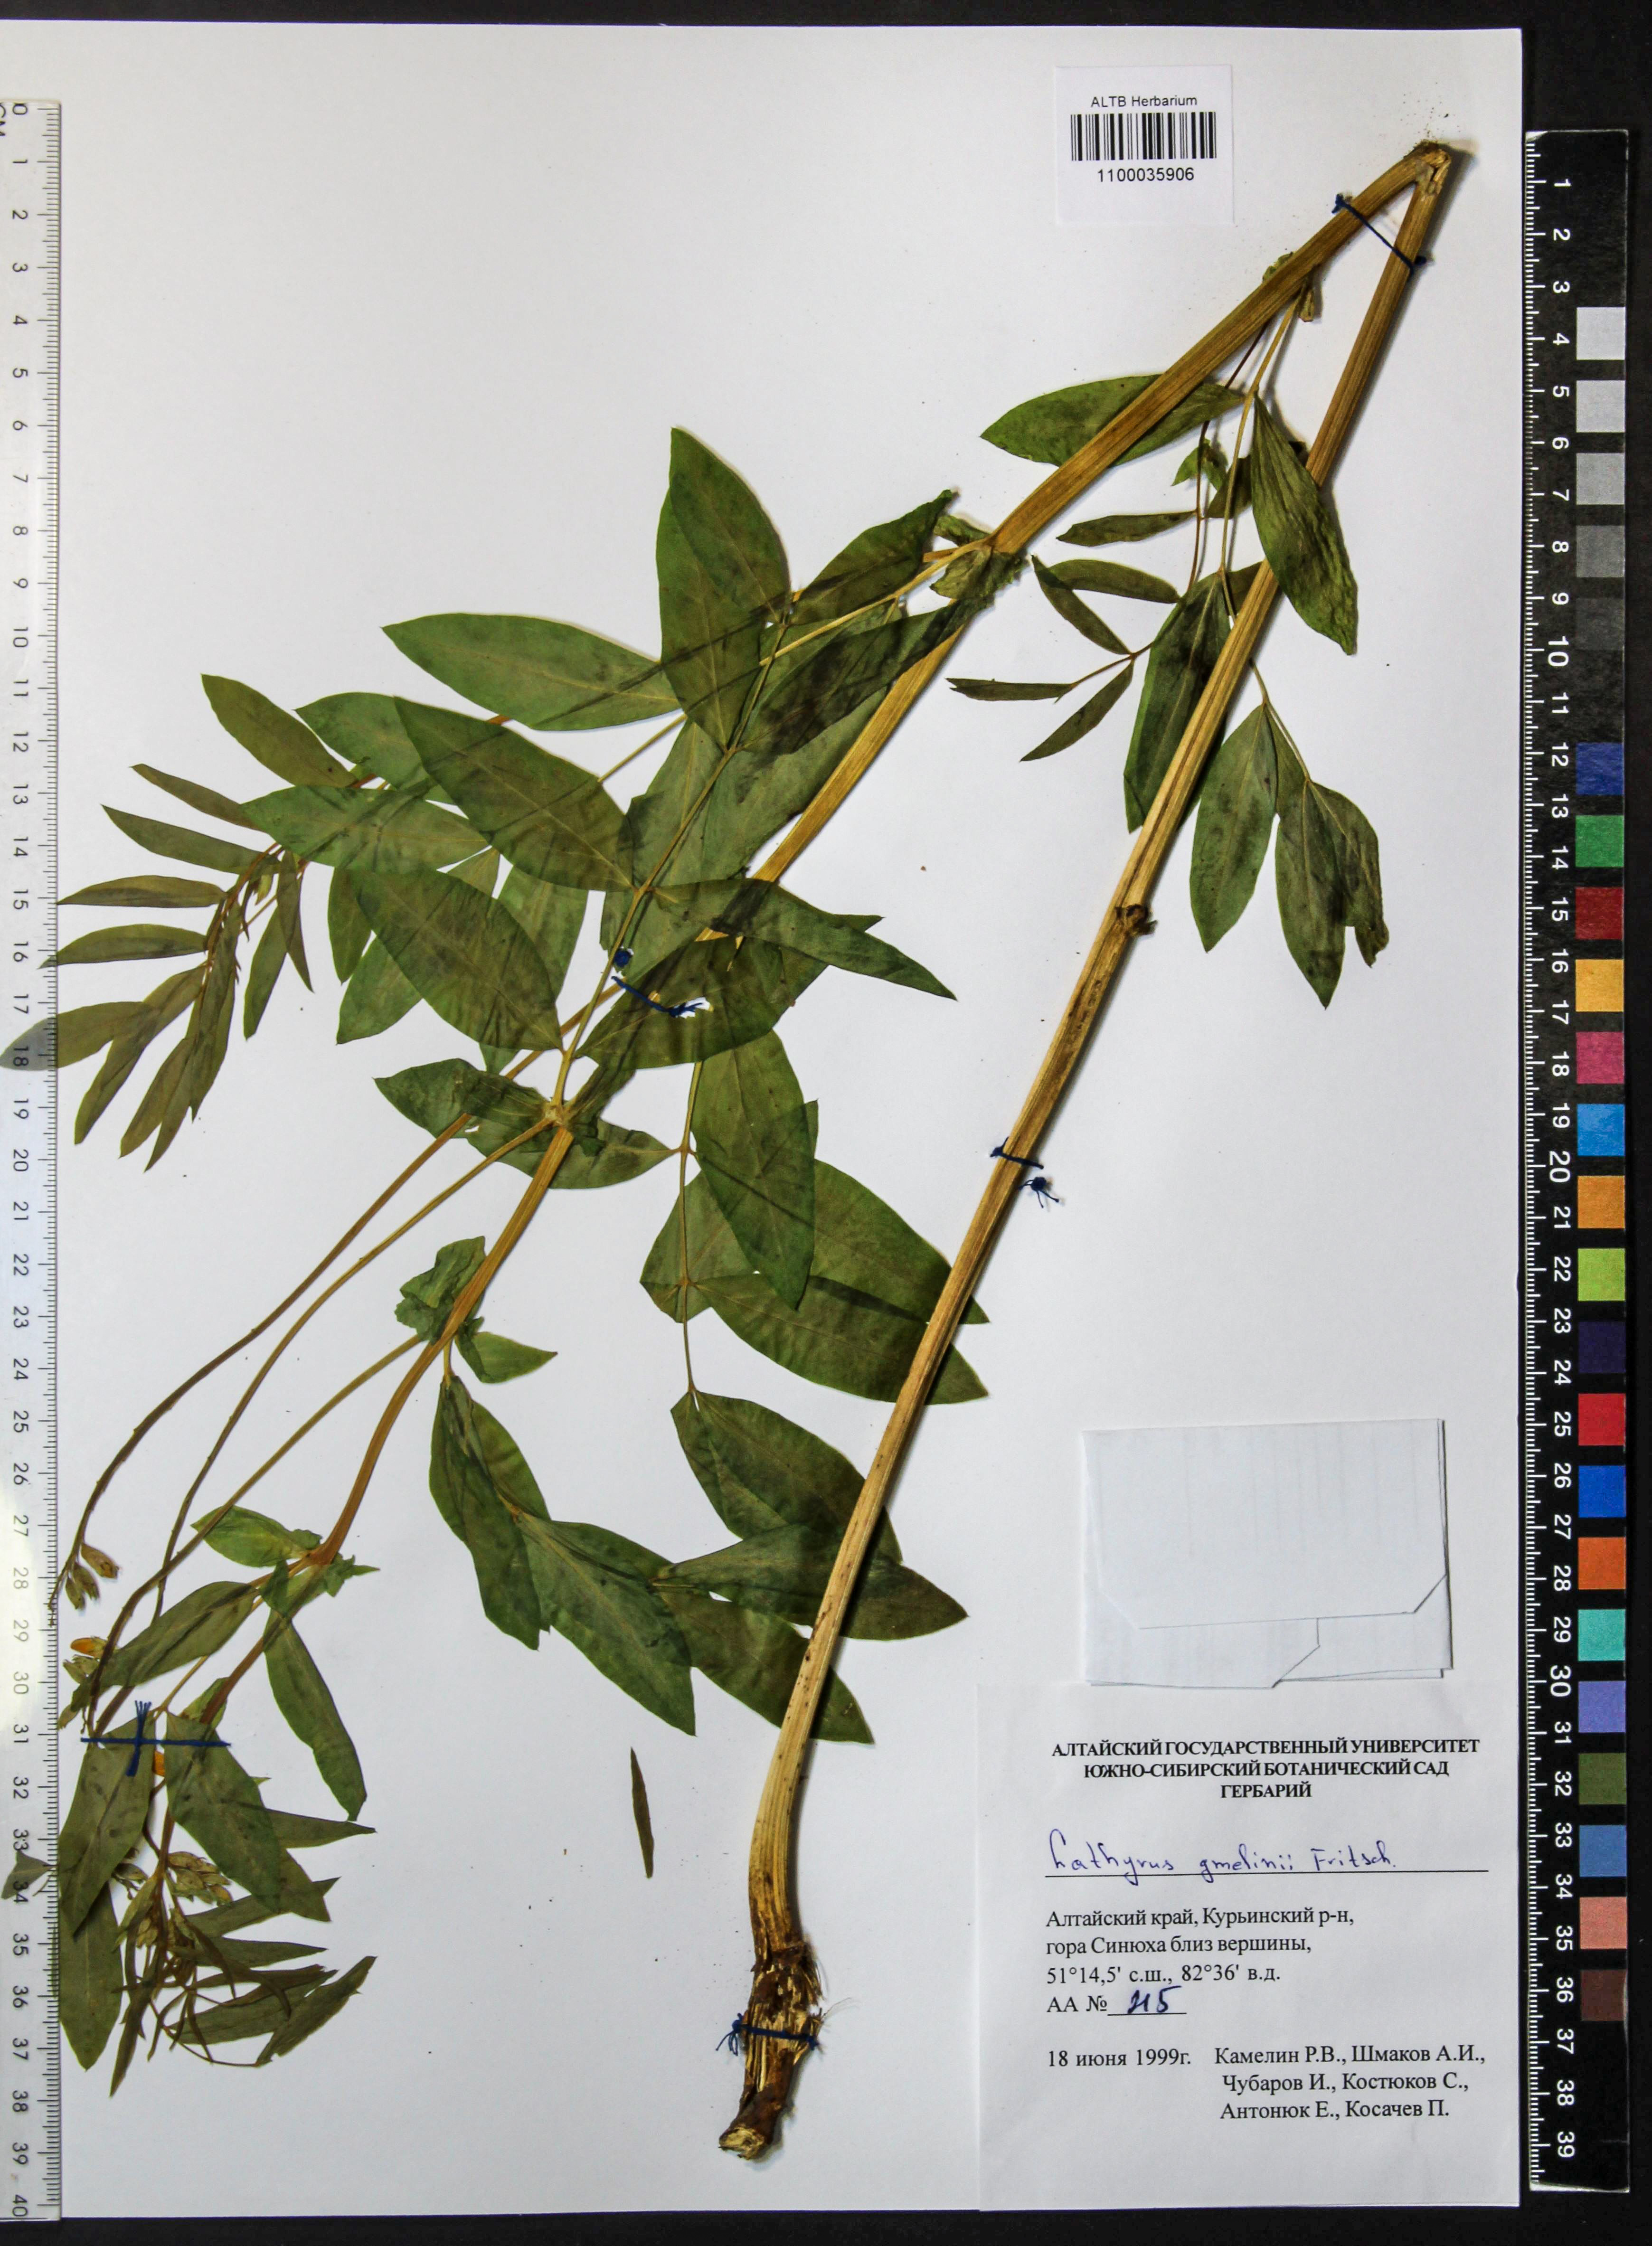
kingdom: Plantae
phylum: Tracheophyta
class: Magnoliopsida
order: Fabales
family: Fabaceae
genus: Lathyrus
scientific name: Lathyrus gmelinii
